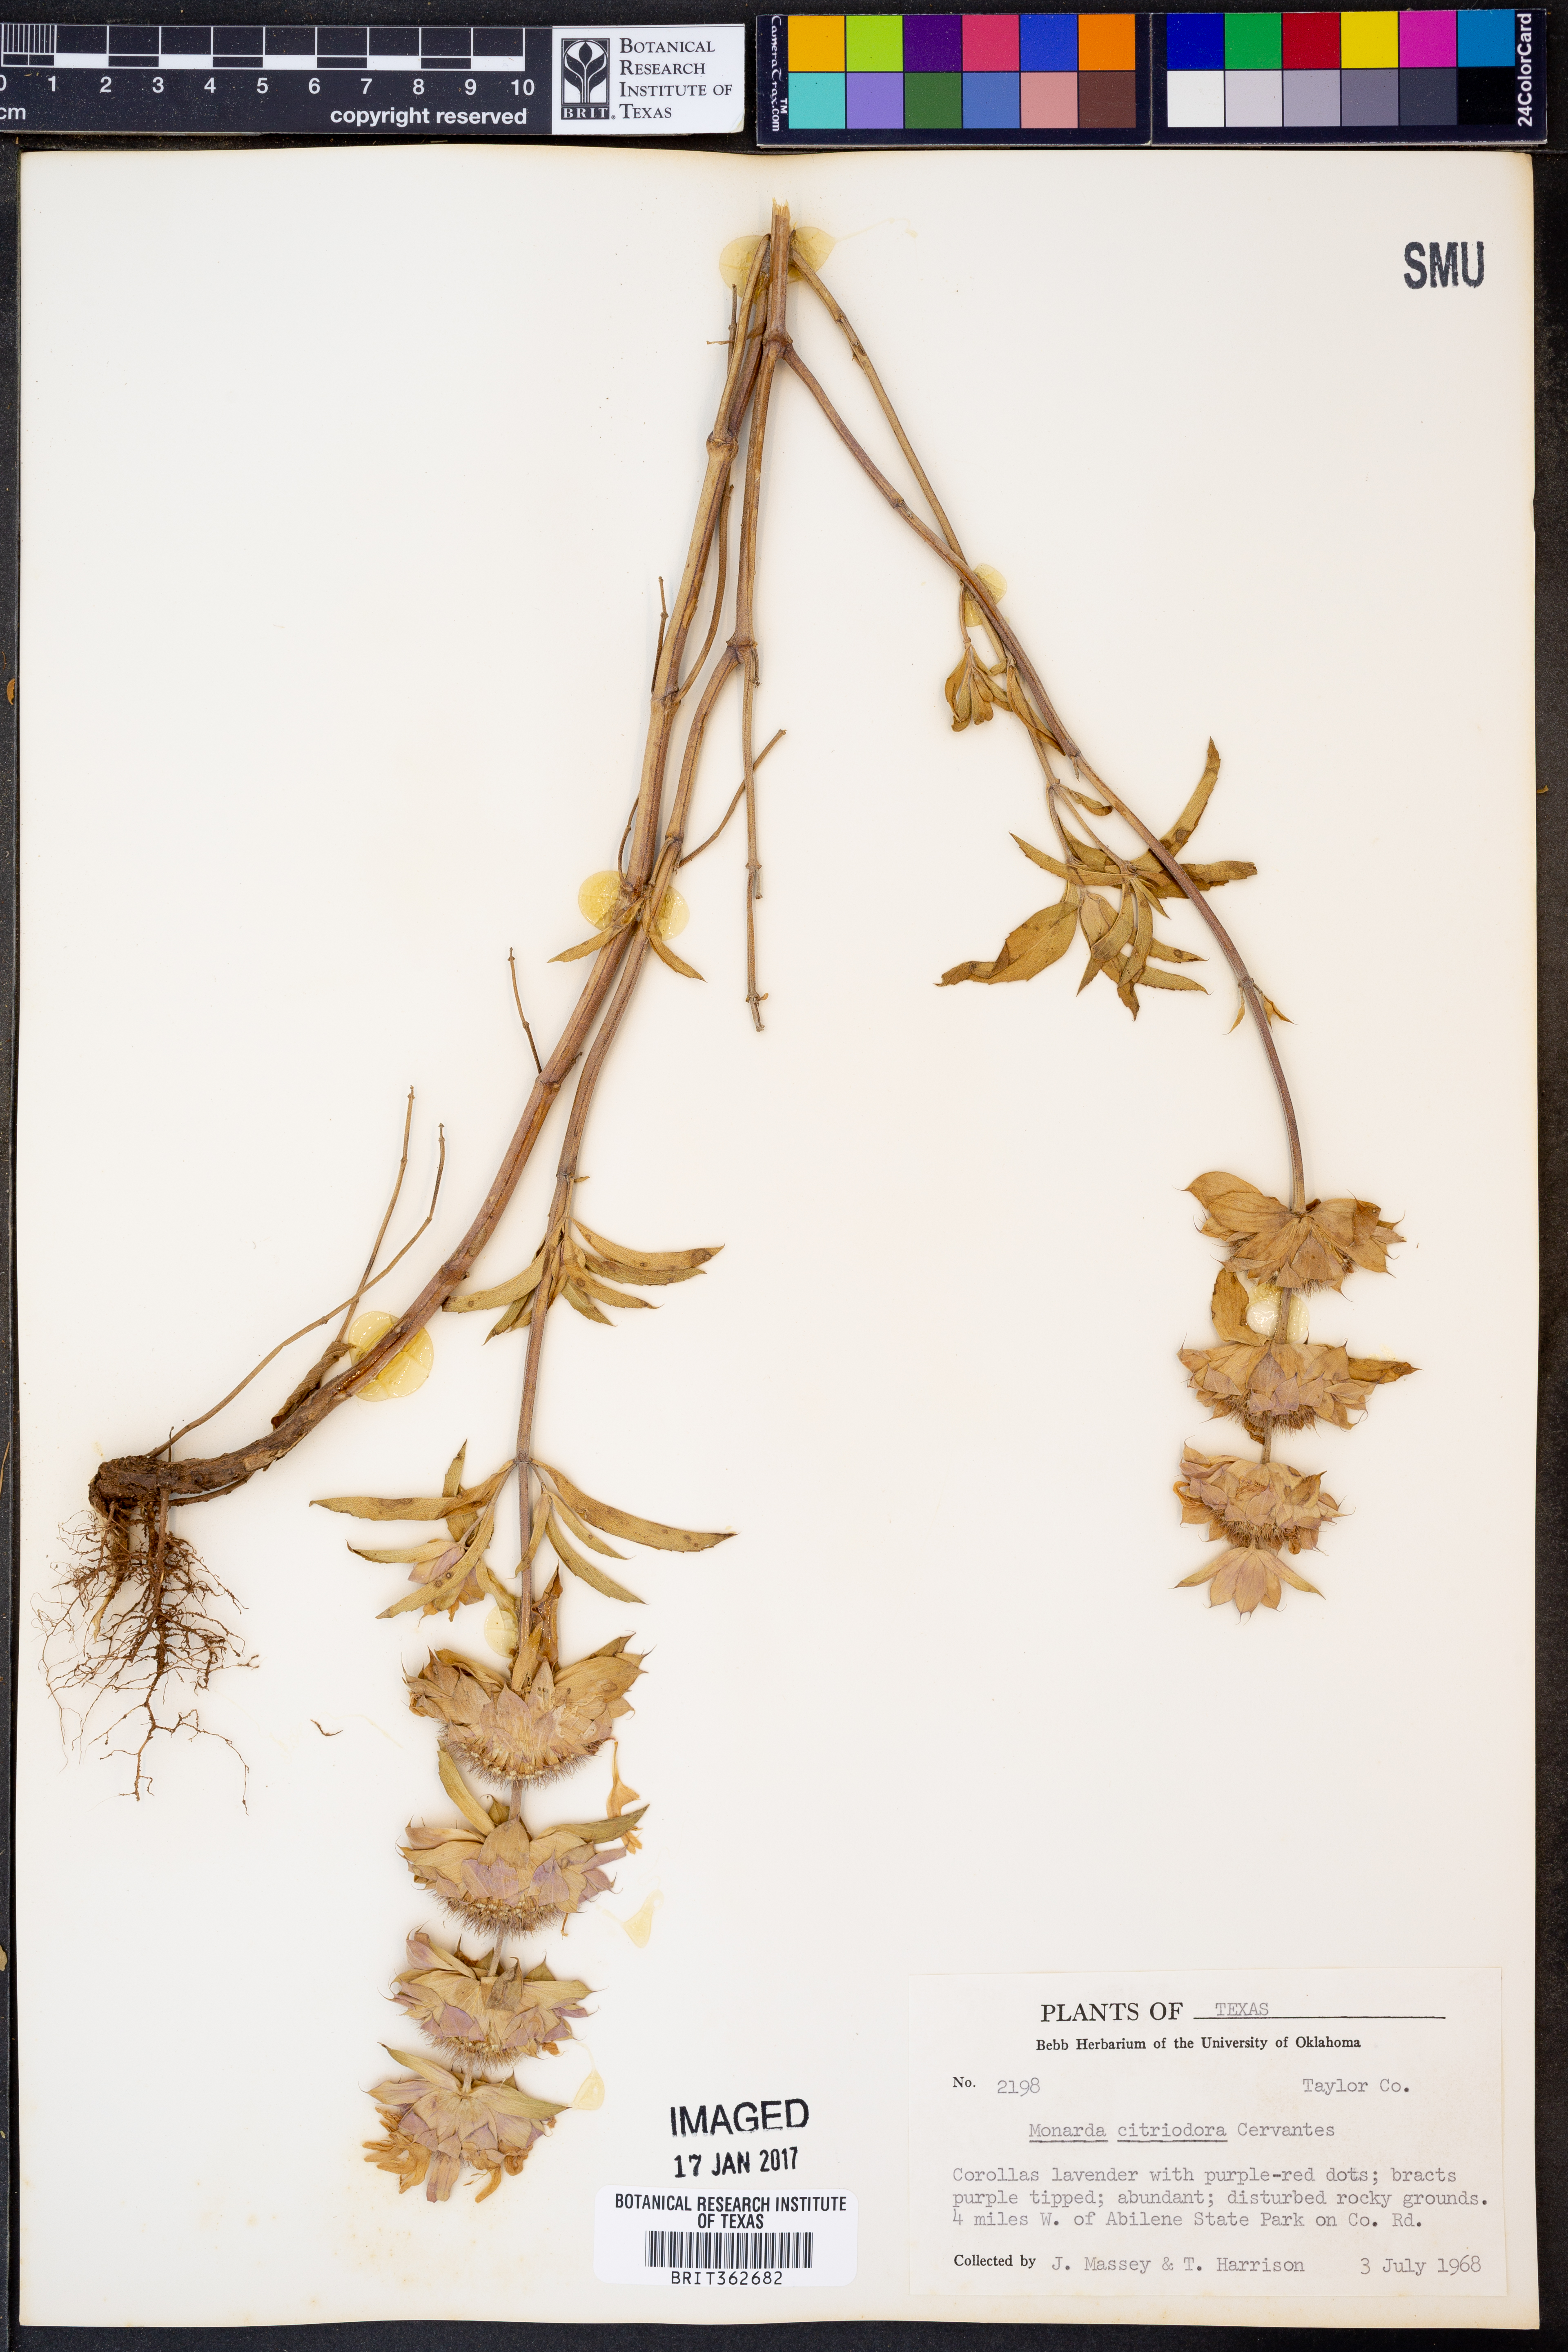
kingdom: Plantae
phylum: Tracheophyta
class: Magnoliopsida
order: Lamiales
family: Lamiaceae
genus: Monarda
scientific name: Monarda citriodora
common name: Lemon beebalm
